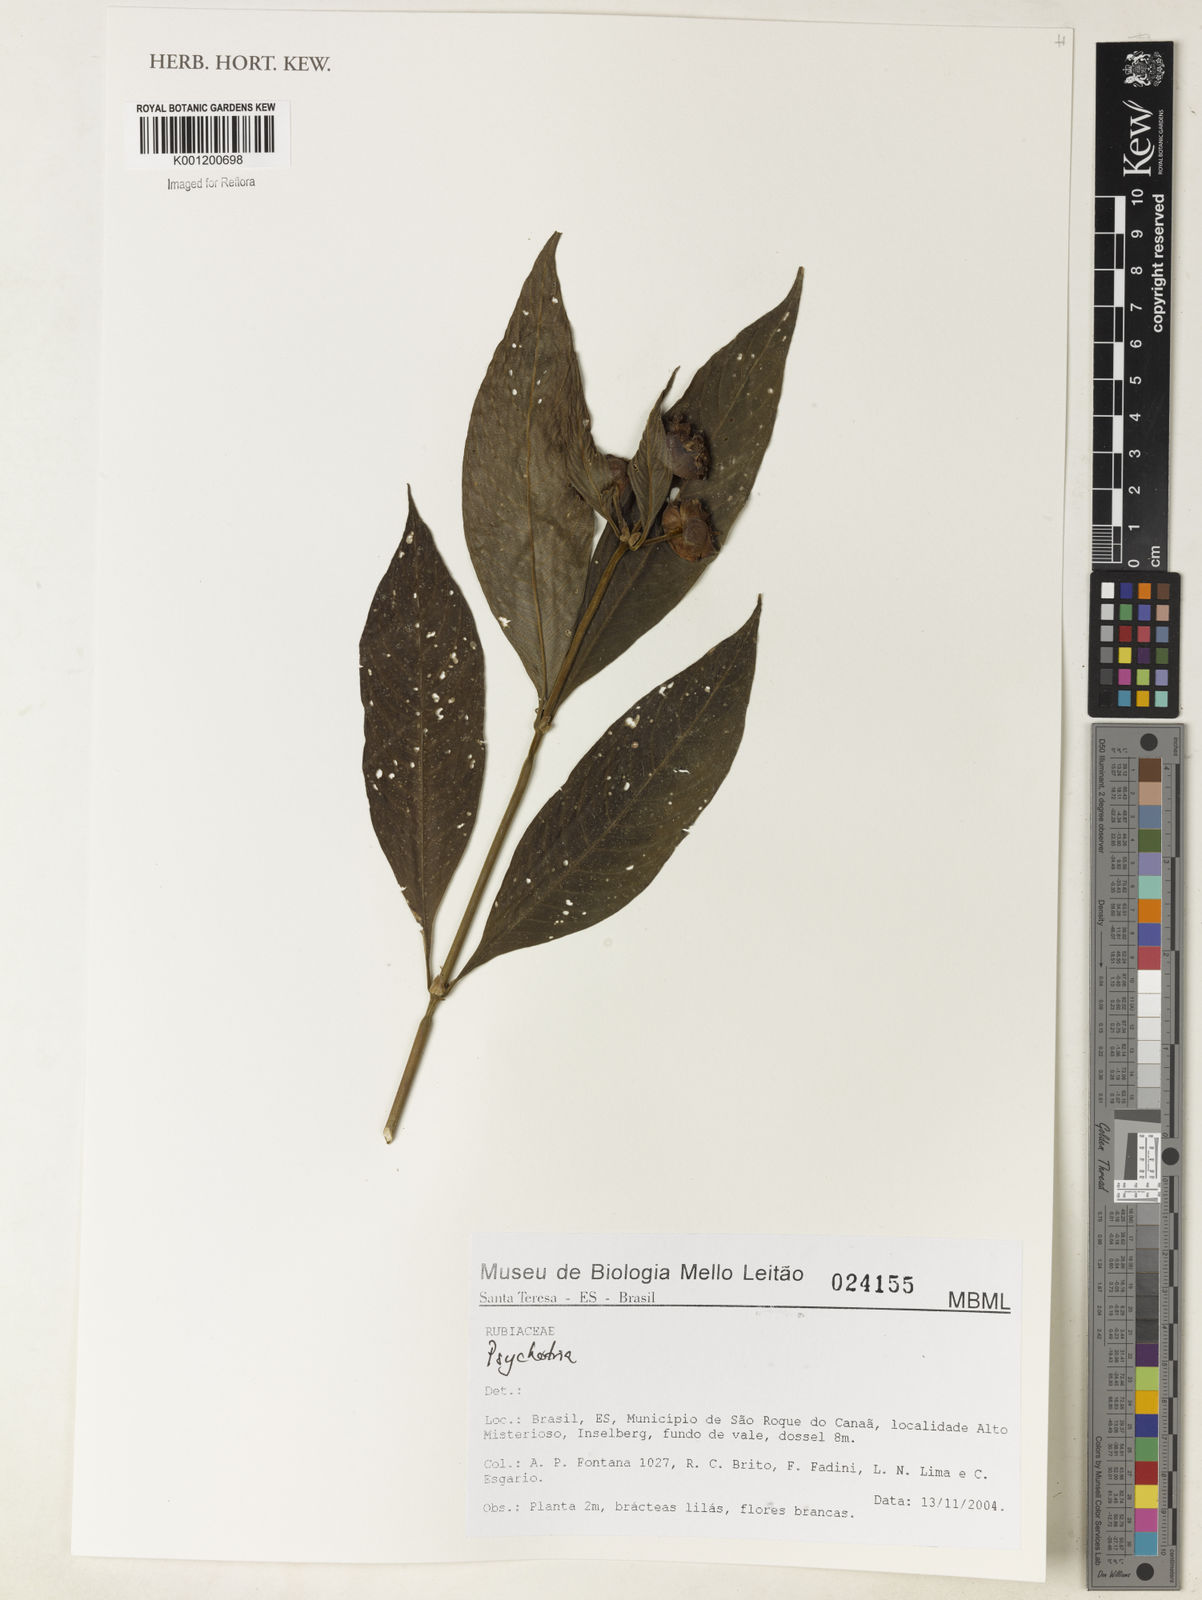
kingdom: Plantae
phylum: Tracheophyta
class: Magnoliopsida
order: Gentianales
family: Rubiaceae
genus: Psychotria
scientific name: Psychotria
